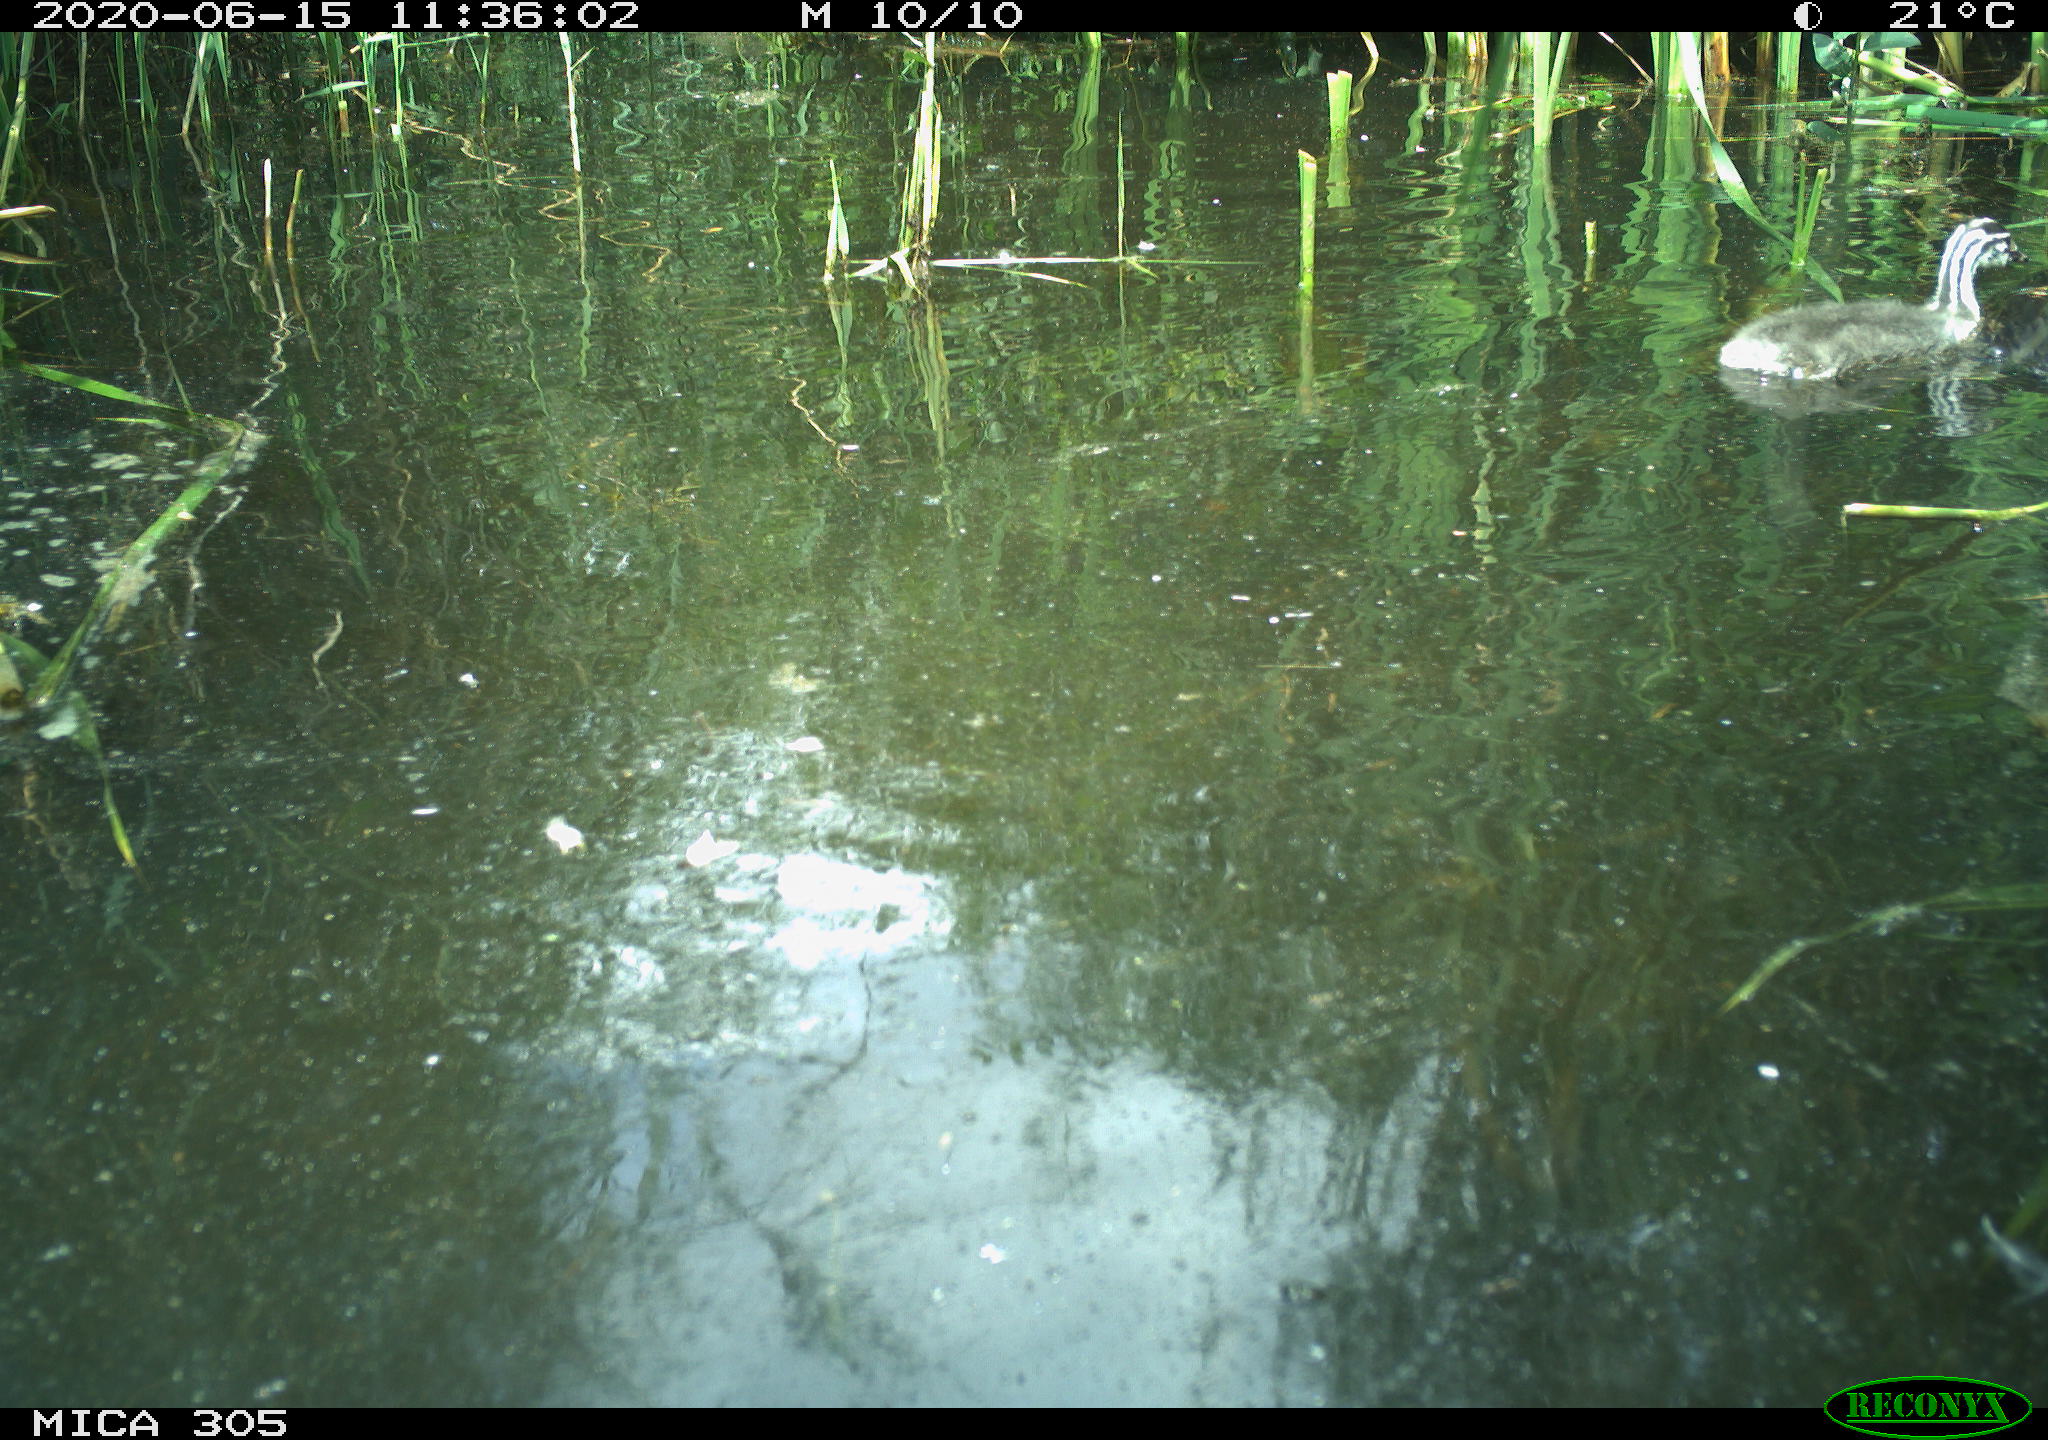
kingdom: Animalia
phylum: Chordata
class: Aves
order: Podicipediformes
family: Podicipedidae
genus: Podiceps
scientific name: Podiceps cristatus
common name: Great crested grebe
